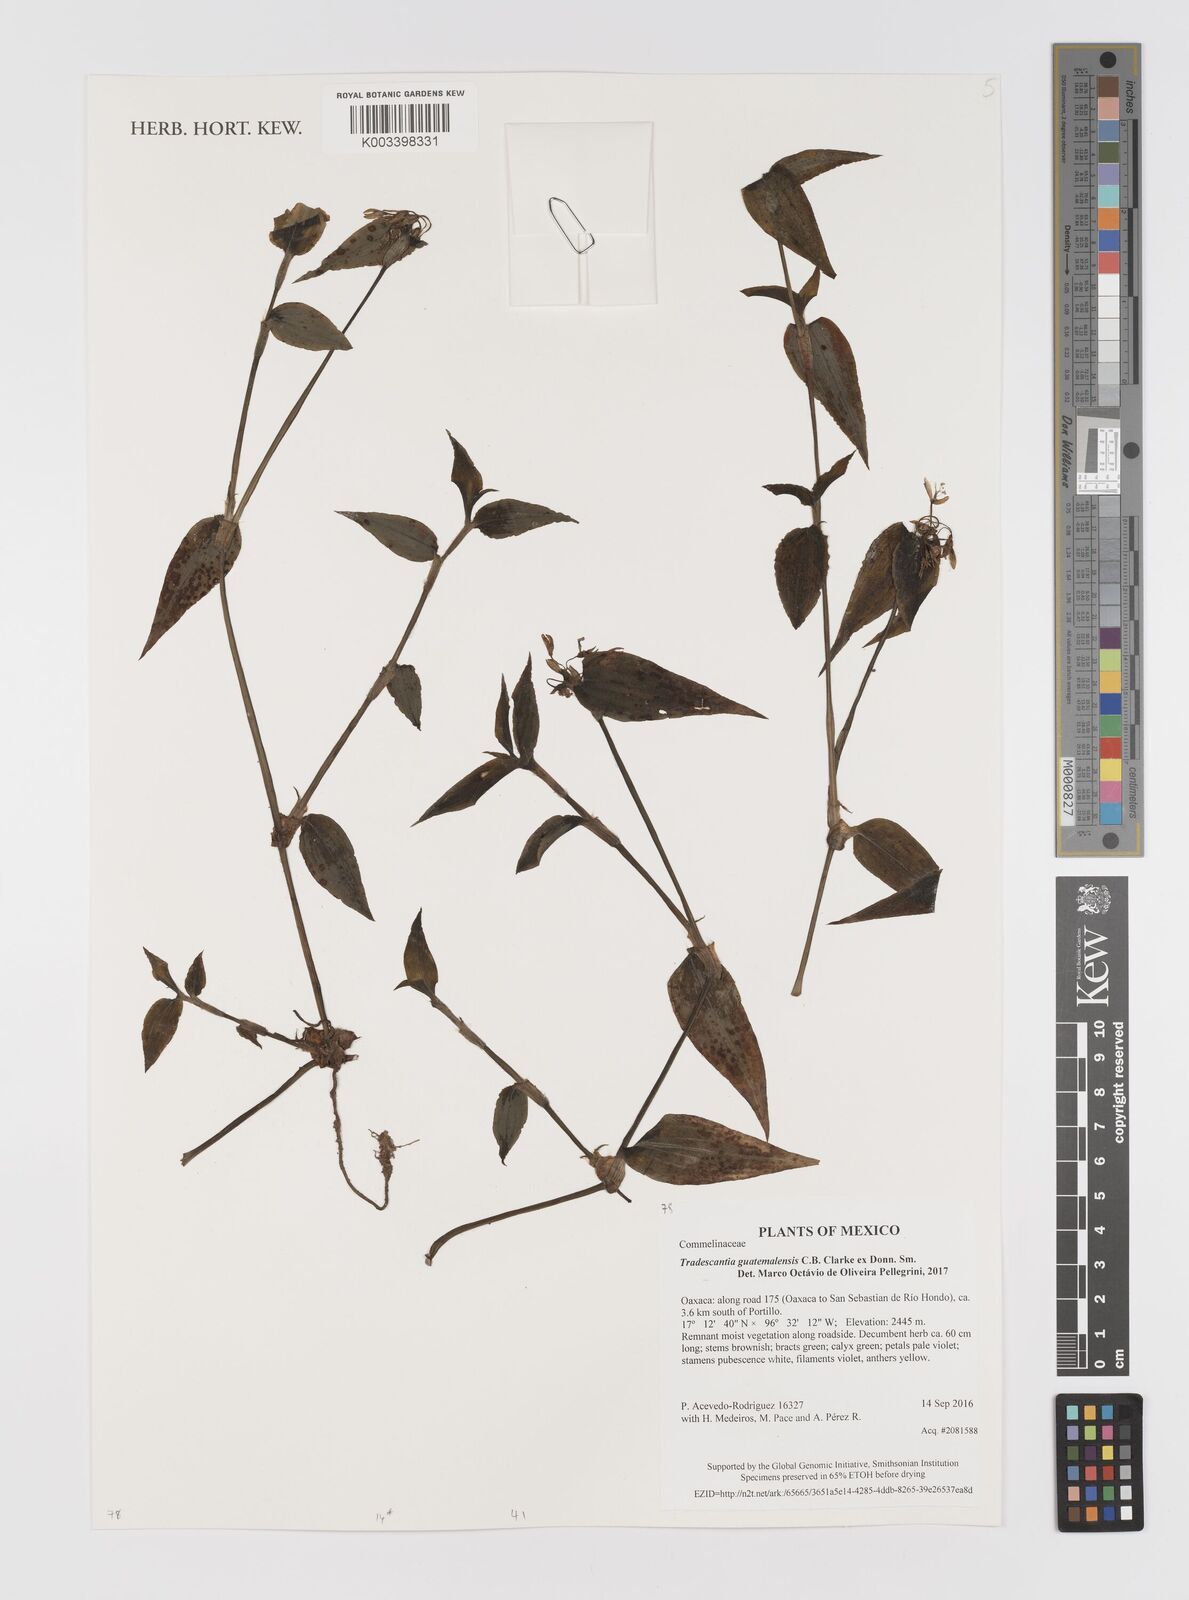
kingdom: Plantae
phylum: Tracheophyta
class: Liliopsida
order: Commelinales
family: Commelinaceae
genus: Elasis
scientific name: Elasis guatemalensis
